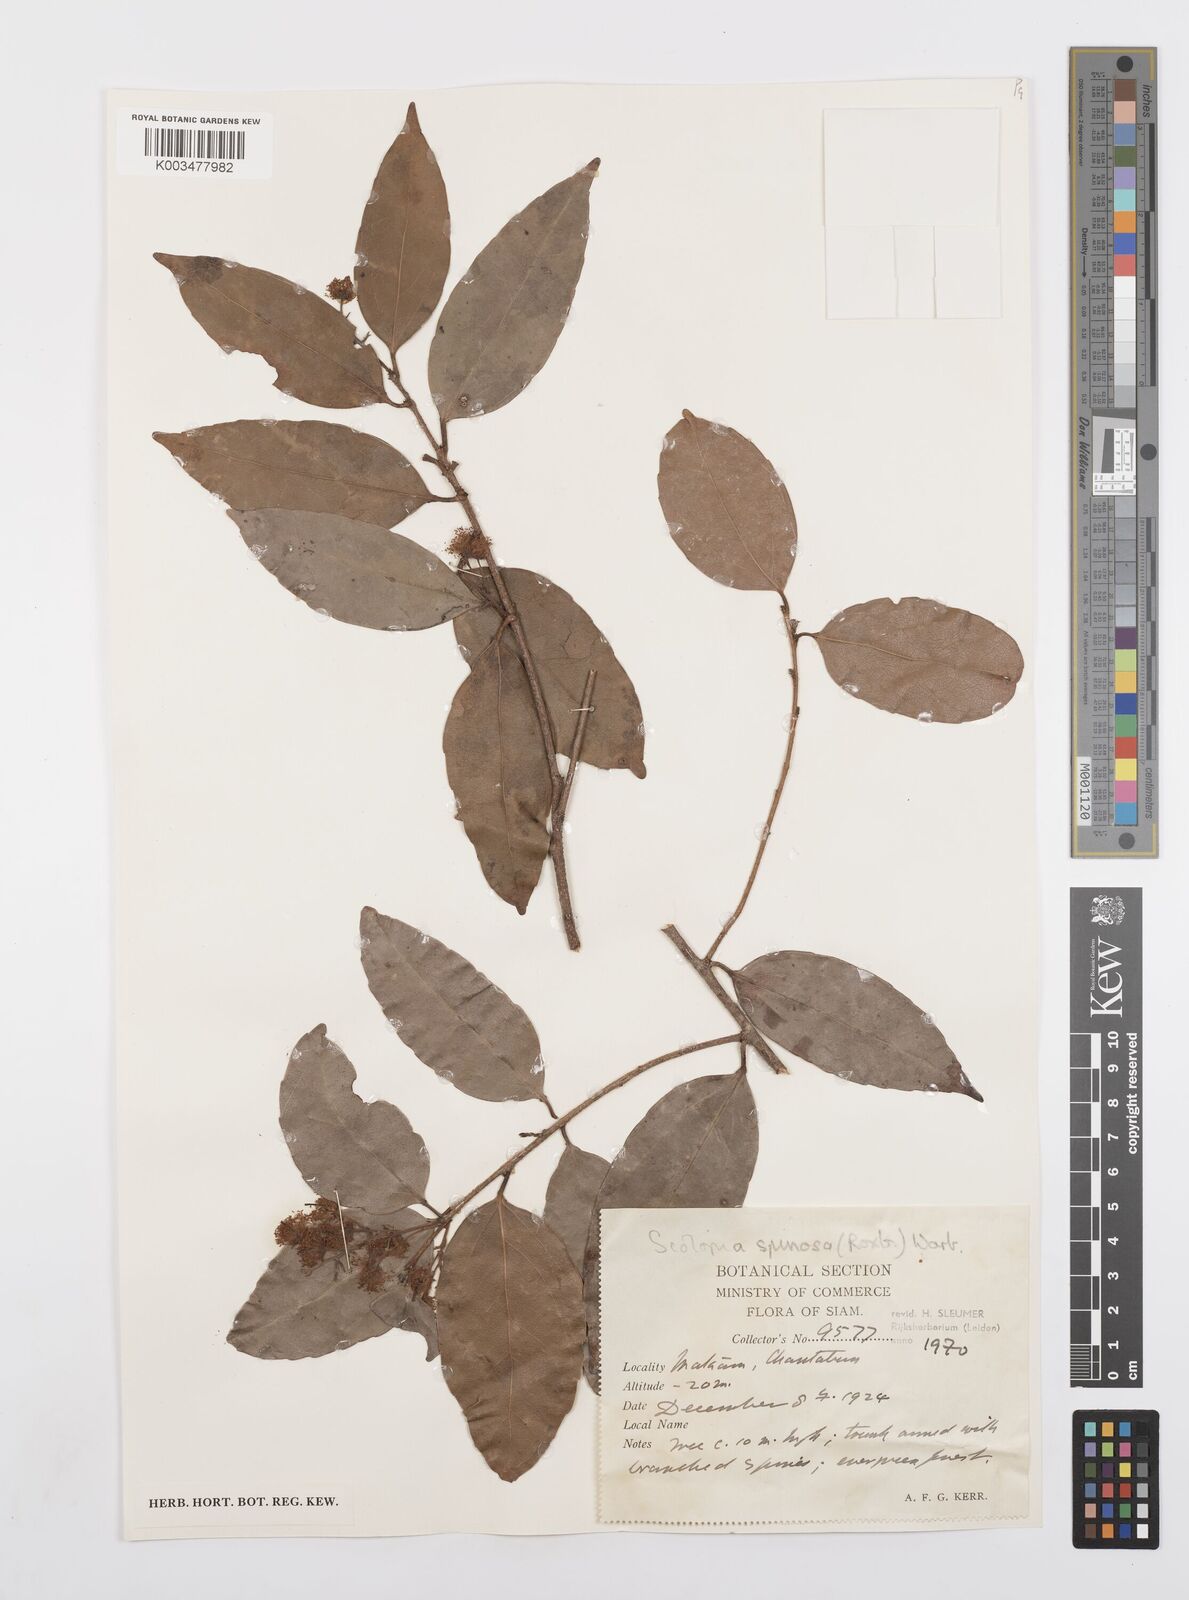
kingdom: Plantae
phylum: Tracheophyta
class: Magnoliopsida
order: Malpighiales
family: Salicaceae
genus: Scolopia
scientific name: Scolopia spinosa
